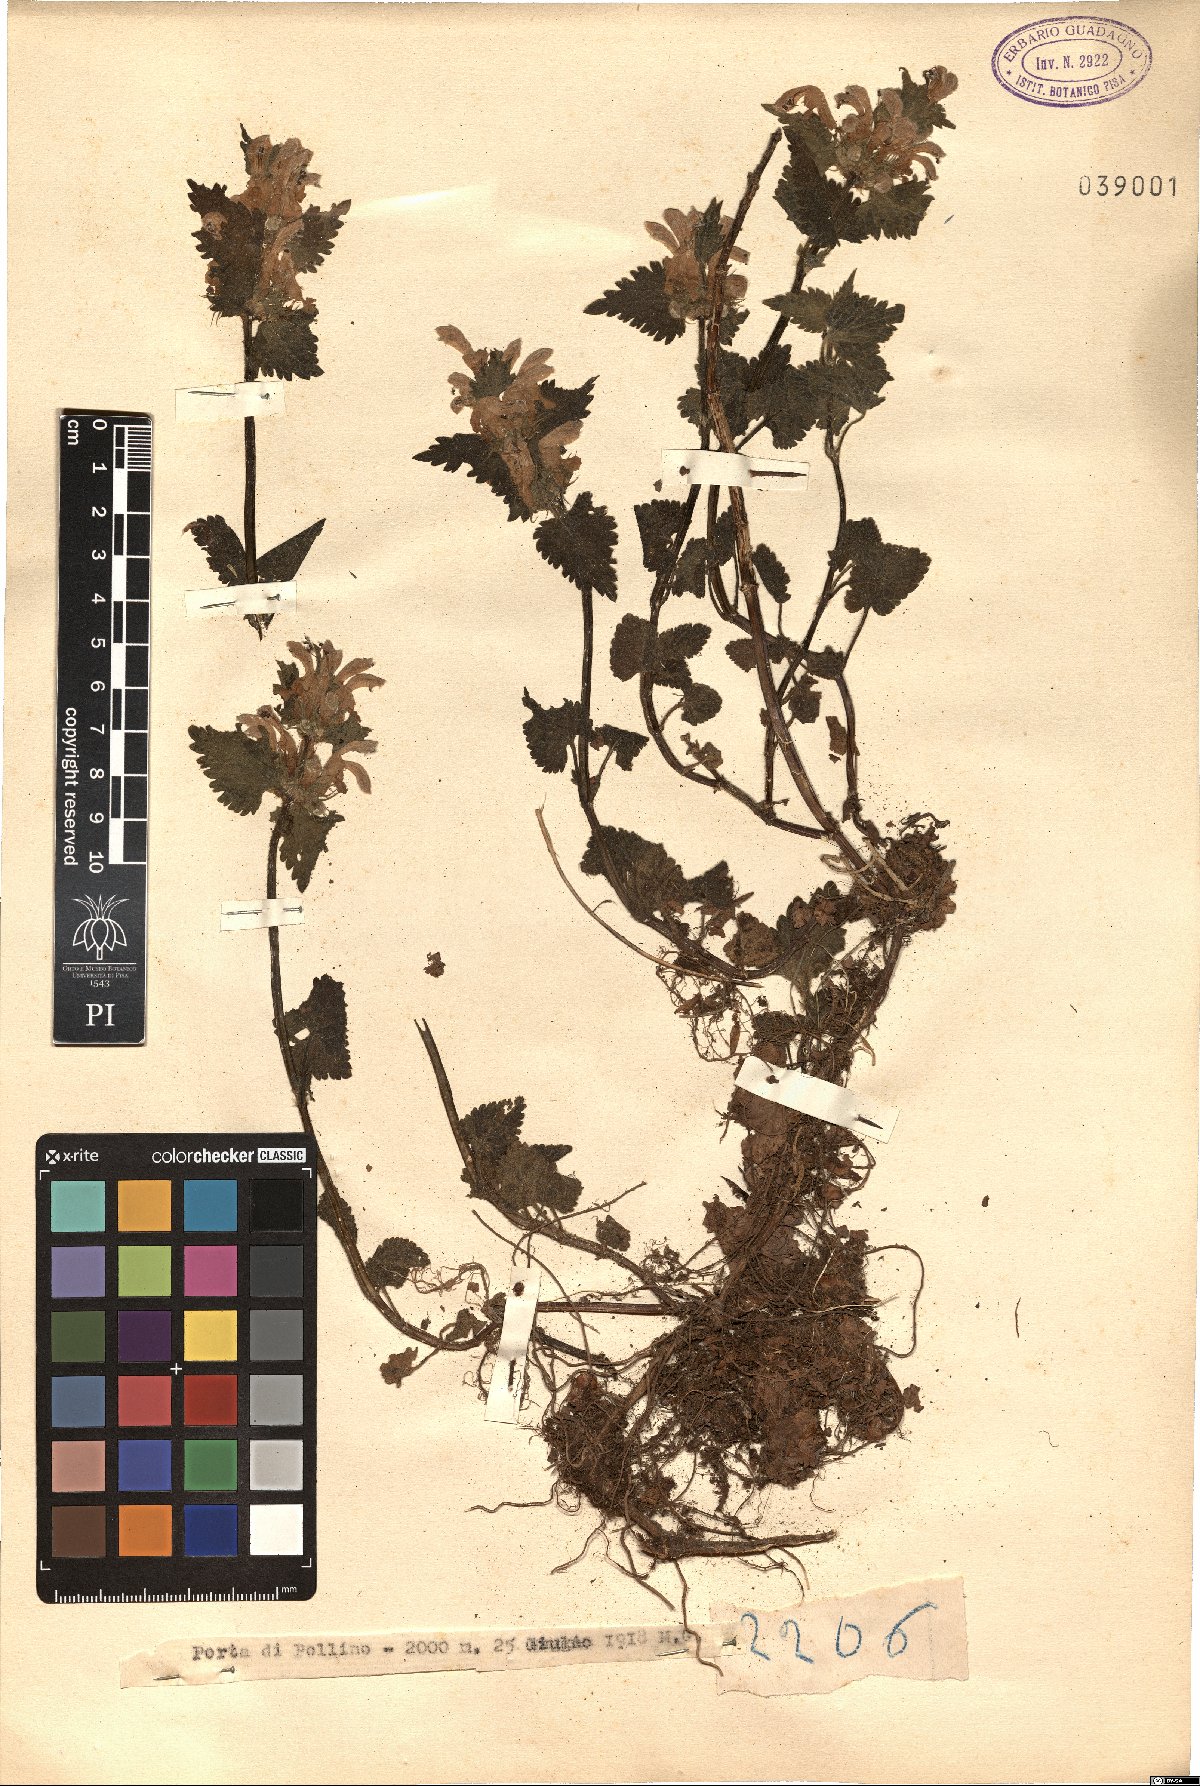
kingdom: Plantae
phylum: Tracheophyta
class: Magnoliopsida
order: Lamiales
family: Lamiaceae
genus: Ballota
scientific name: Ballota
